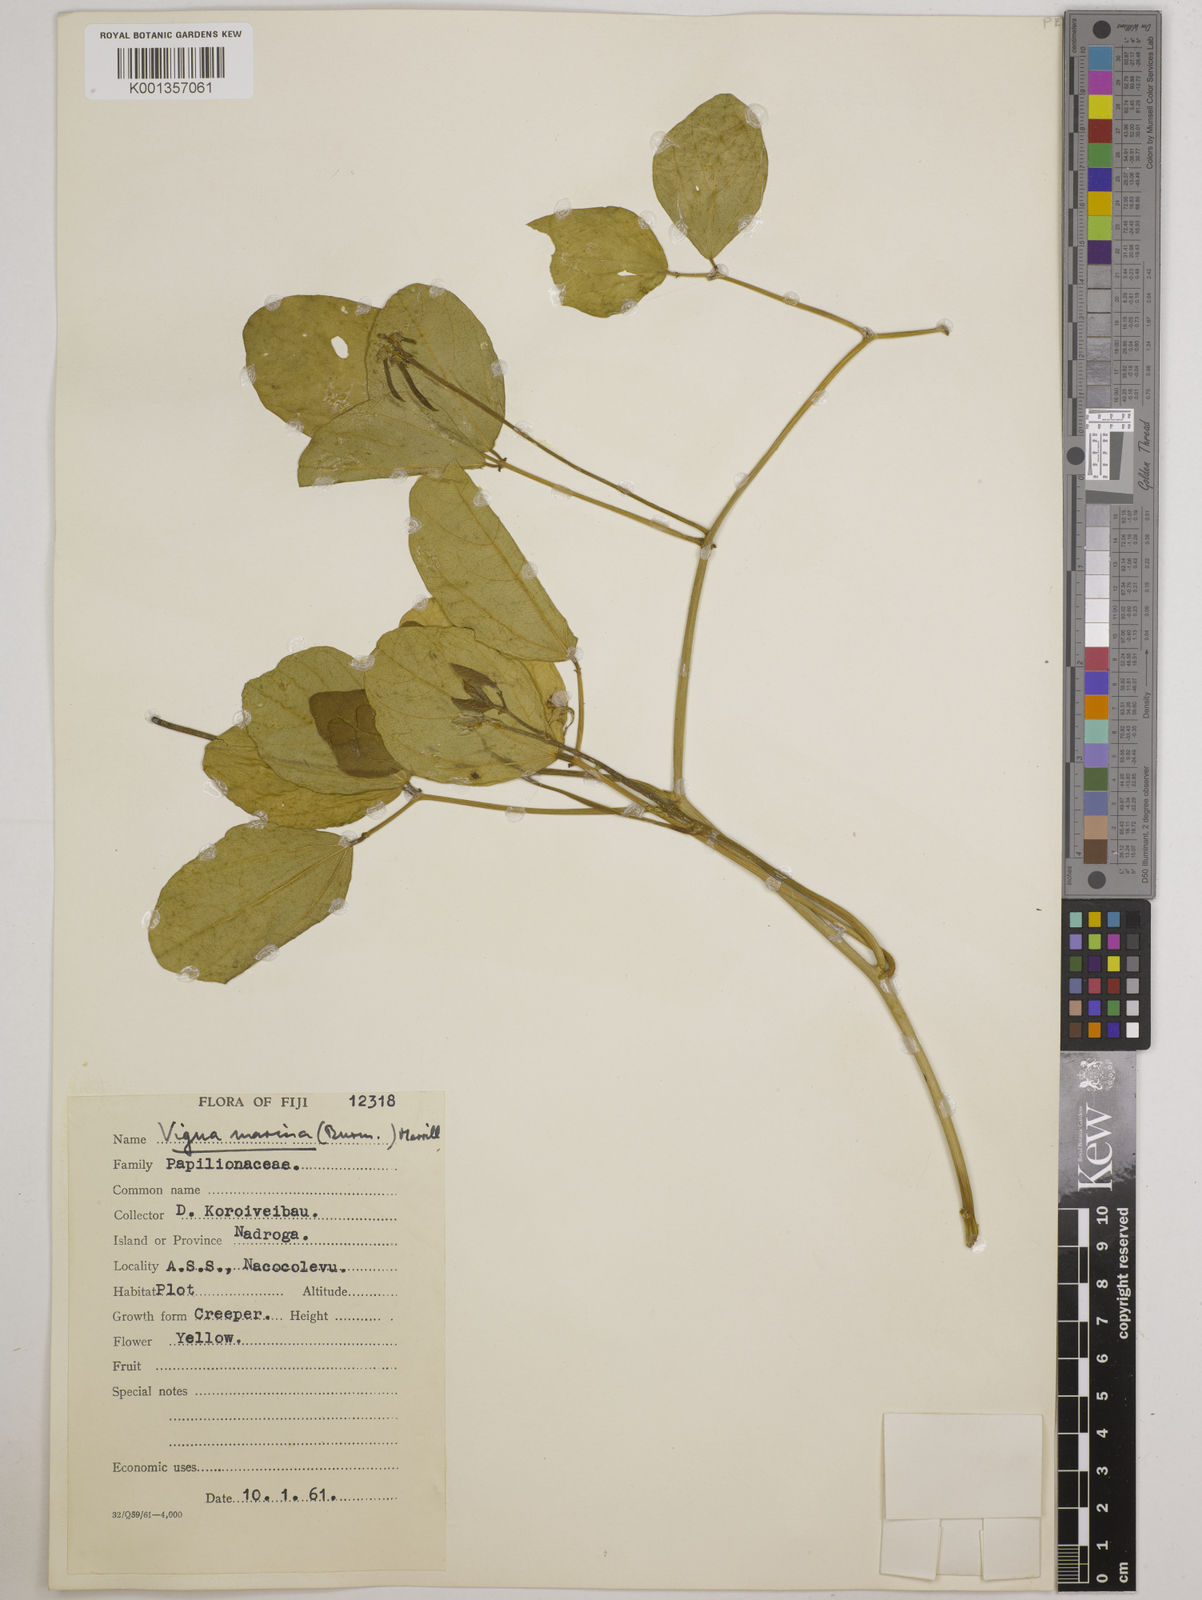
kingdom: Plantae
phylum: Tracheophyta
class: Magnoliopsida
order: Fabales
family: Fabaceae
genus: Vigna
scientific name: Vigna marina
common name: Dune-bean
